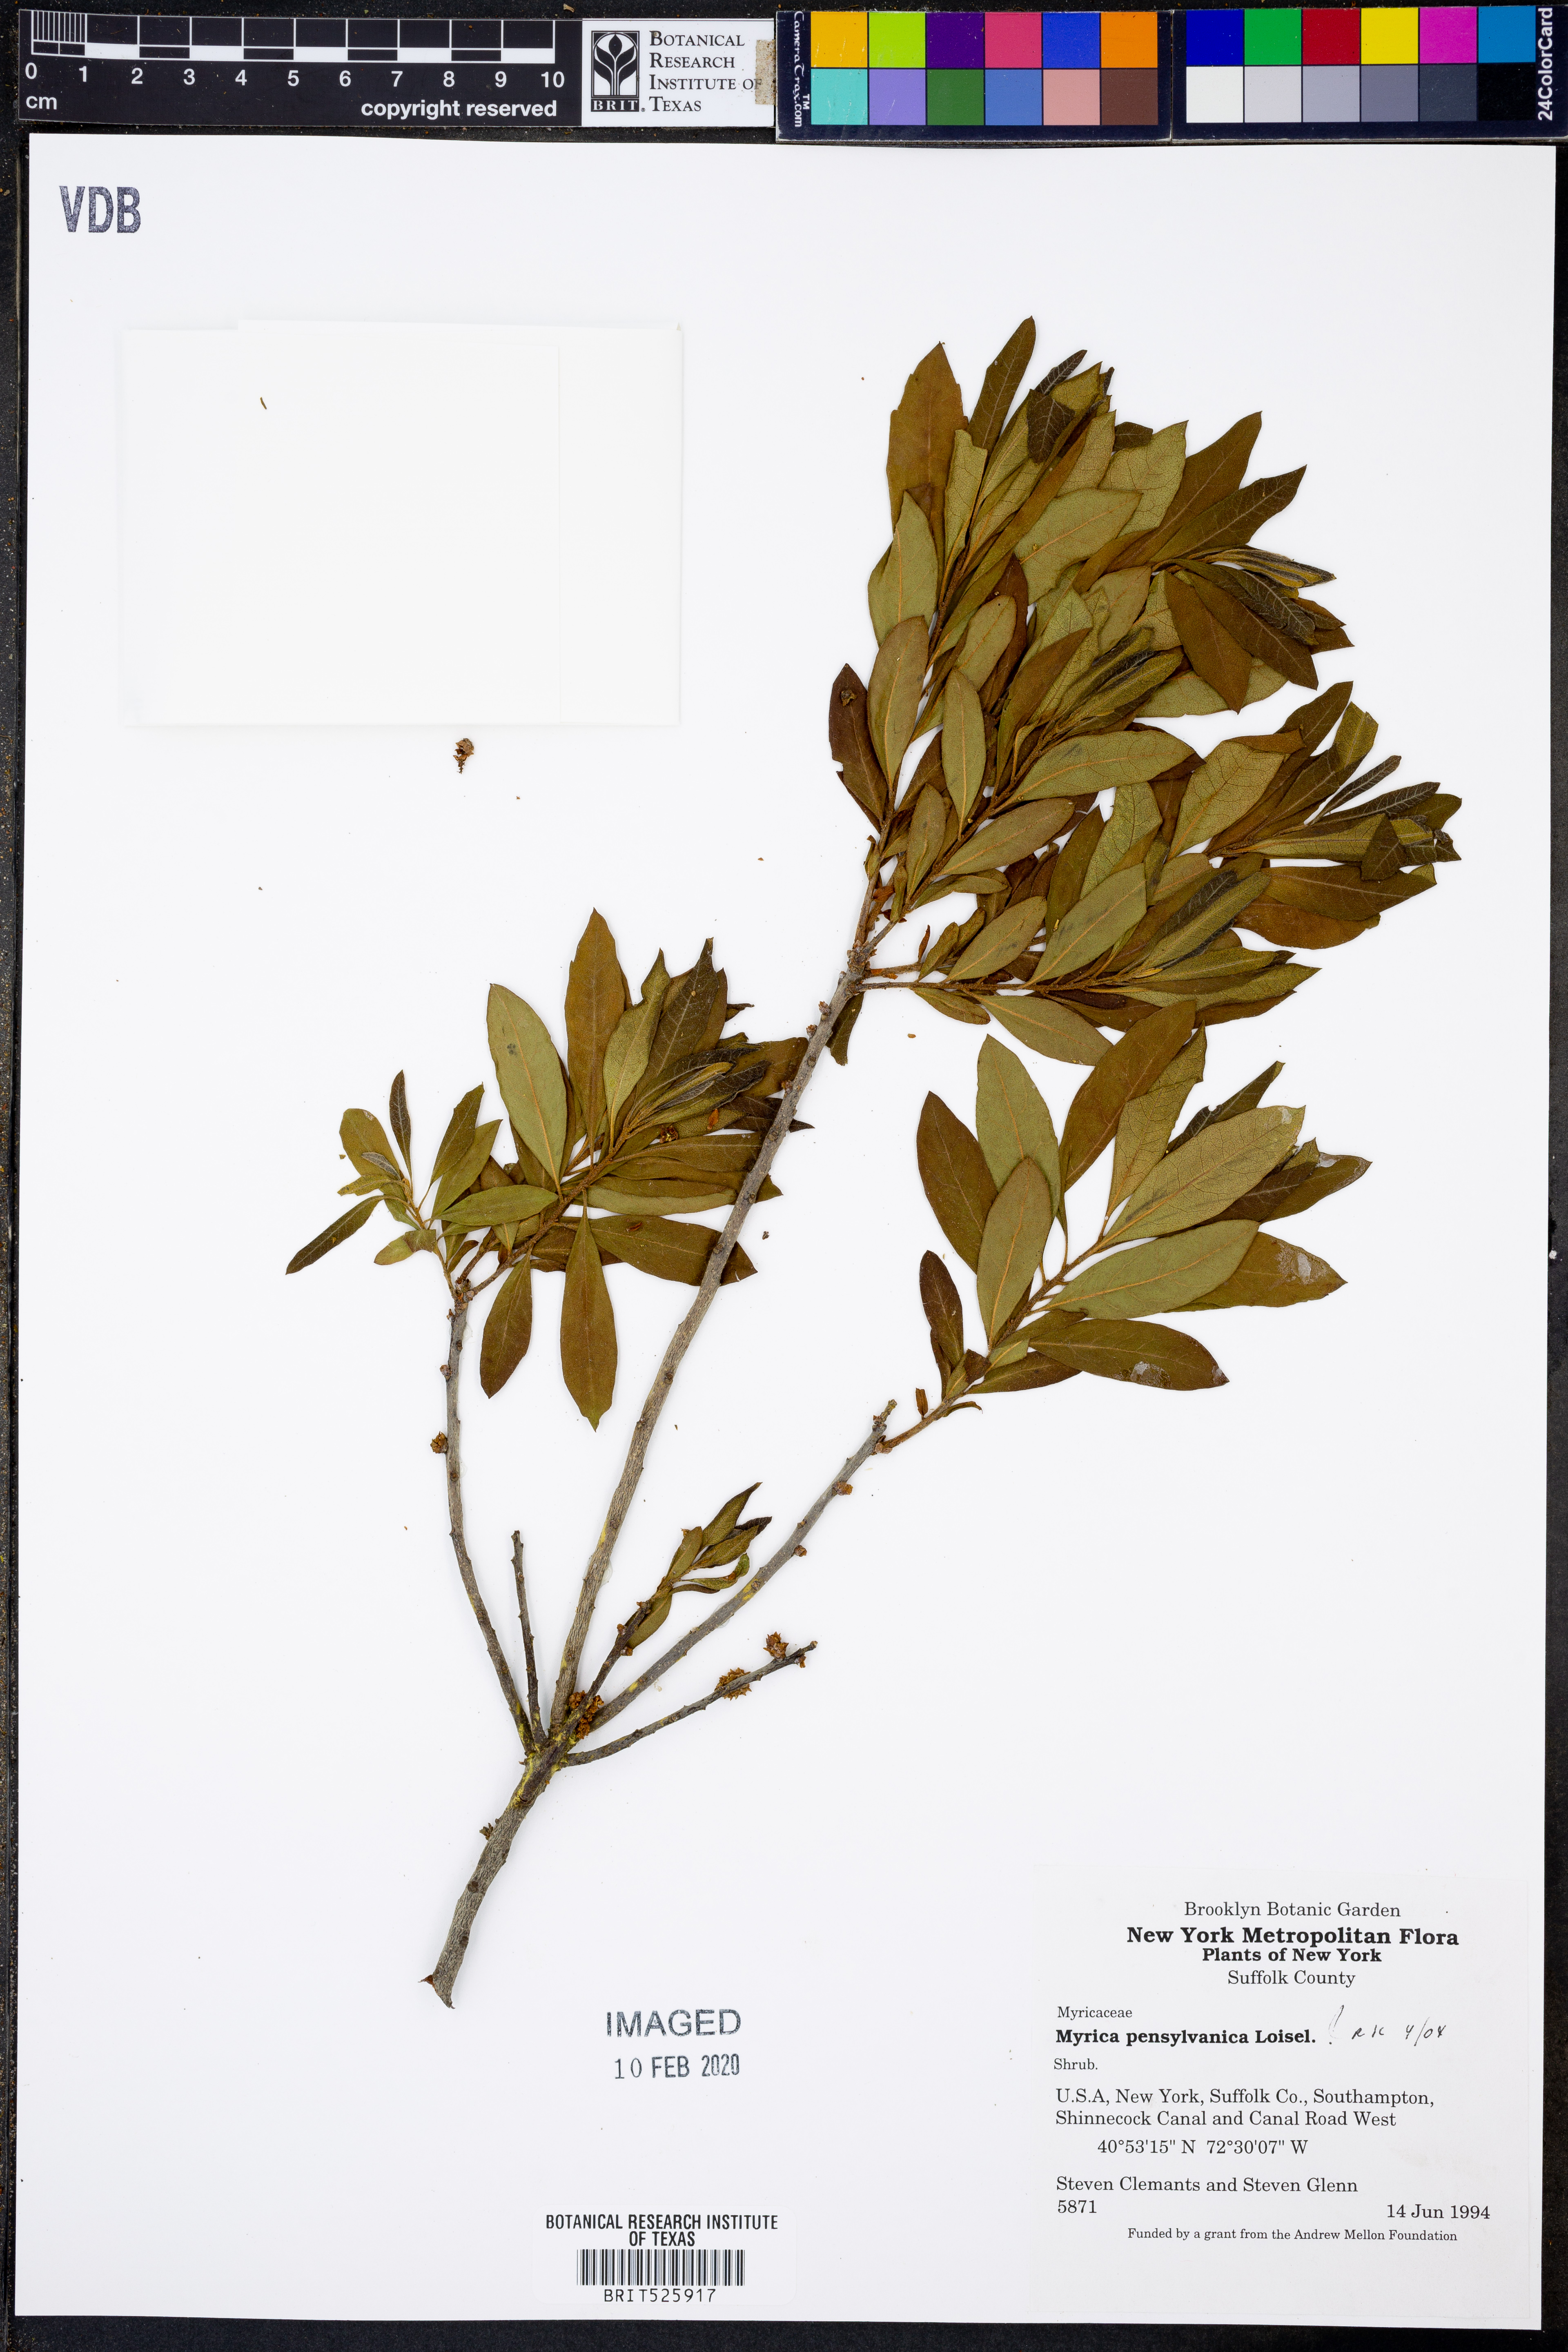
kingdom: Plantae
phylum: Tracheophyta
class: Magnoliopsida
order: Fagales
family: Myricaceae
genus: Morella
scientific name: Morella pensylvanica
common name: Northern bayberry
